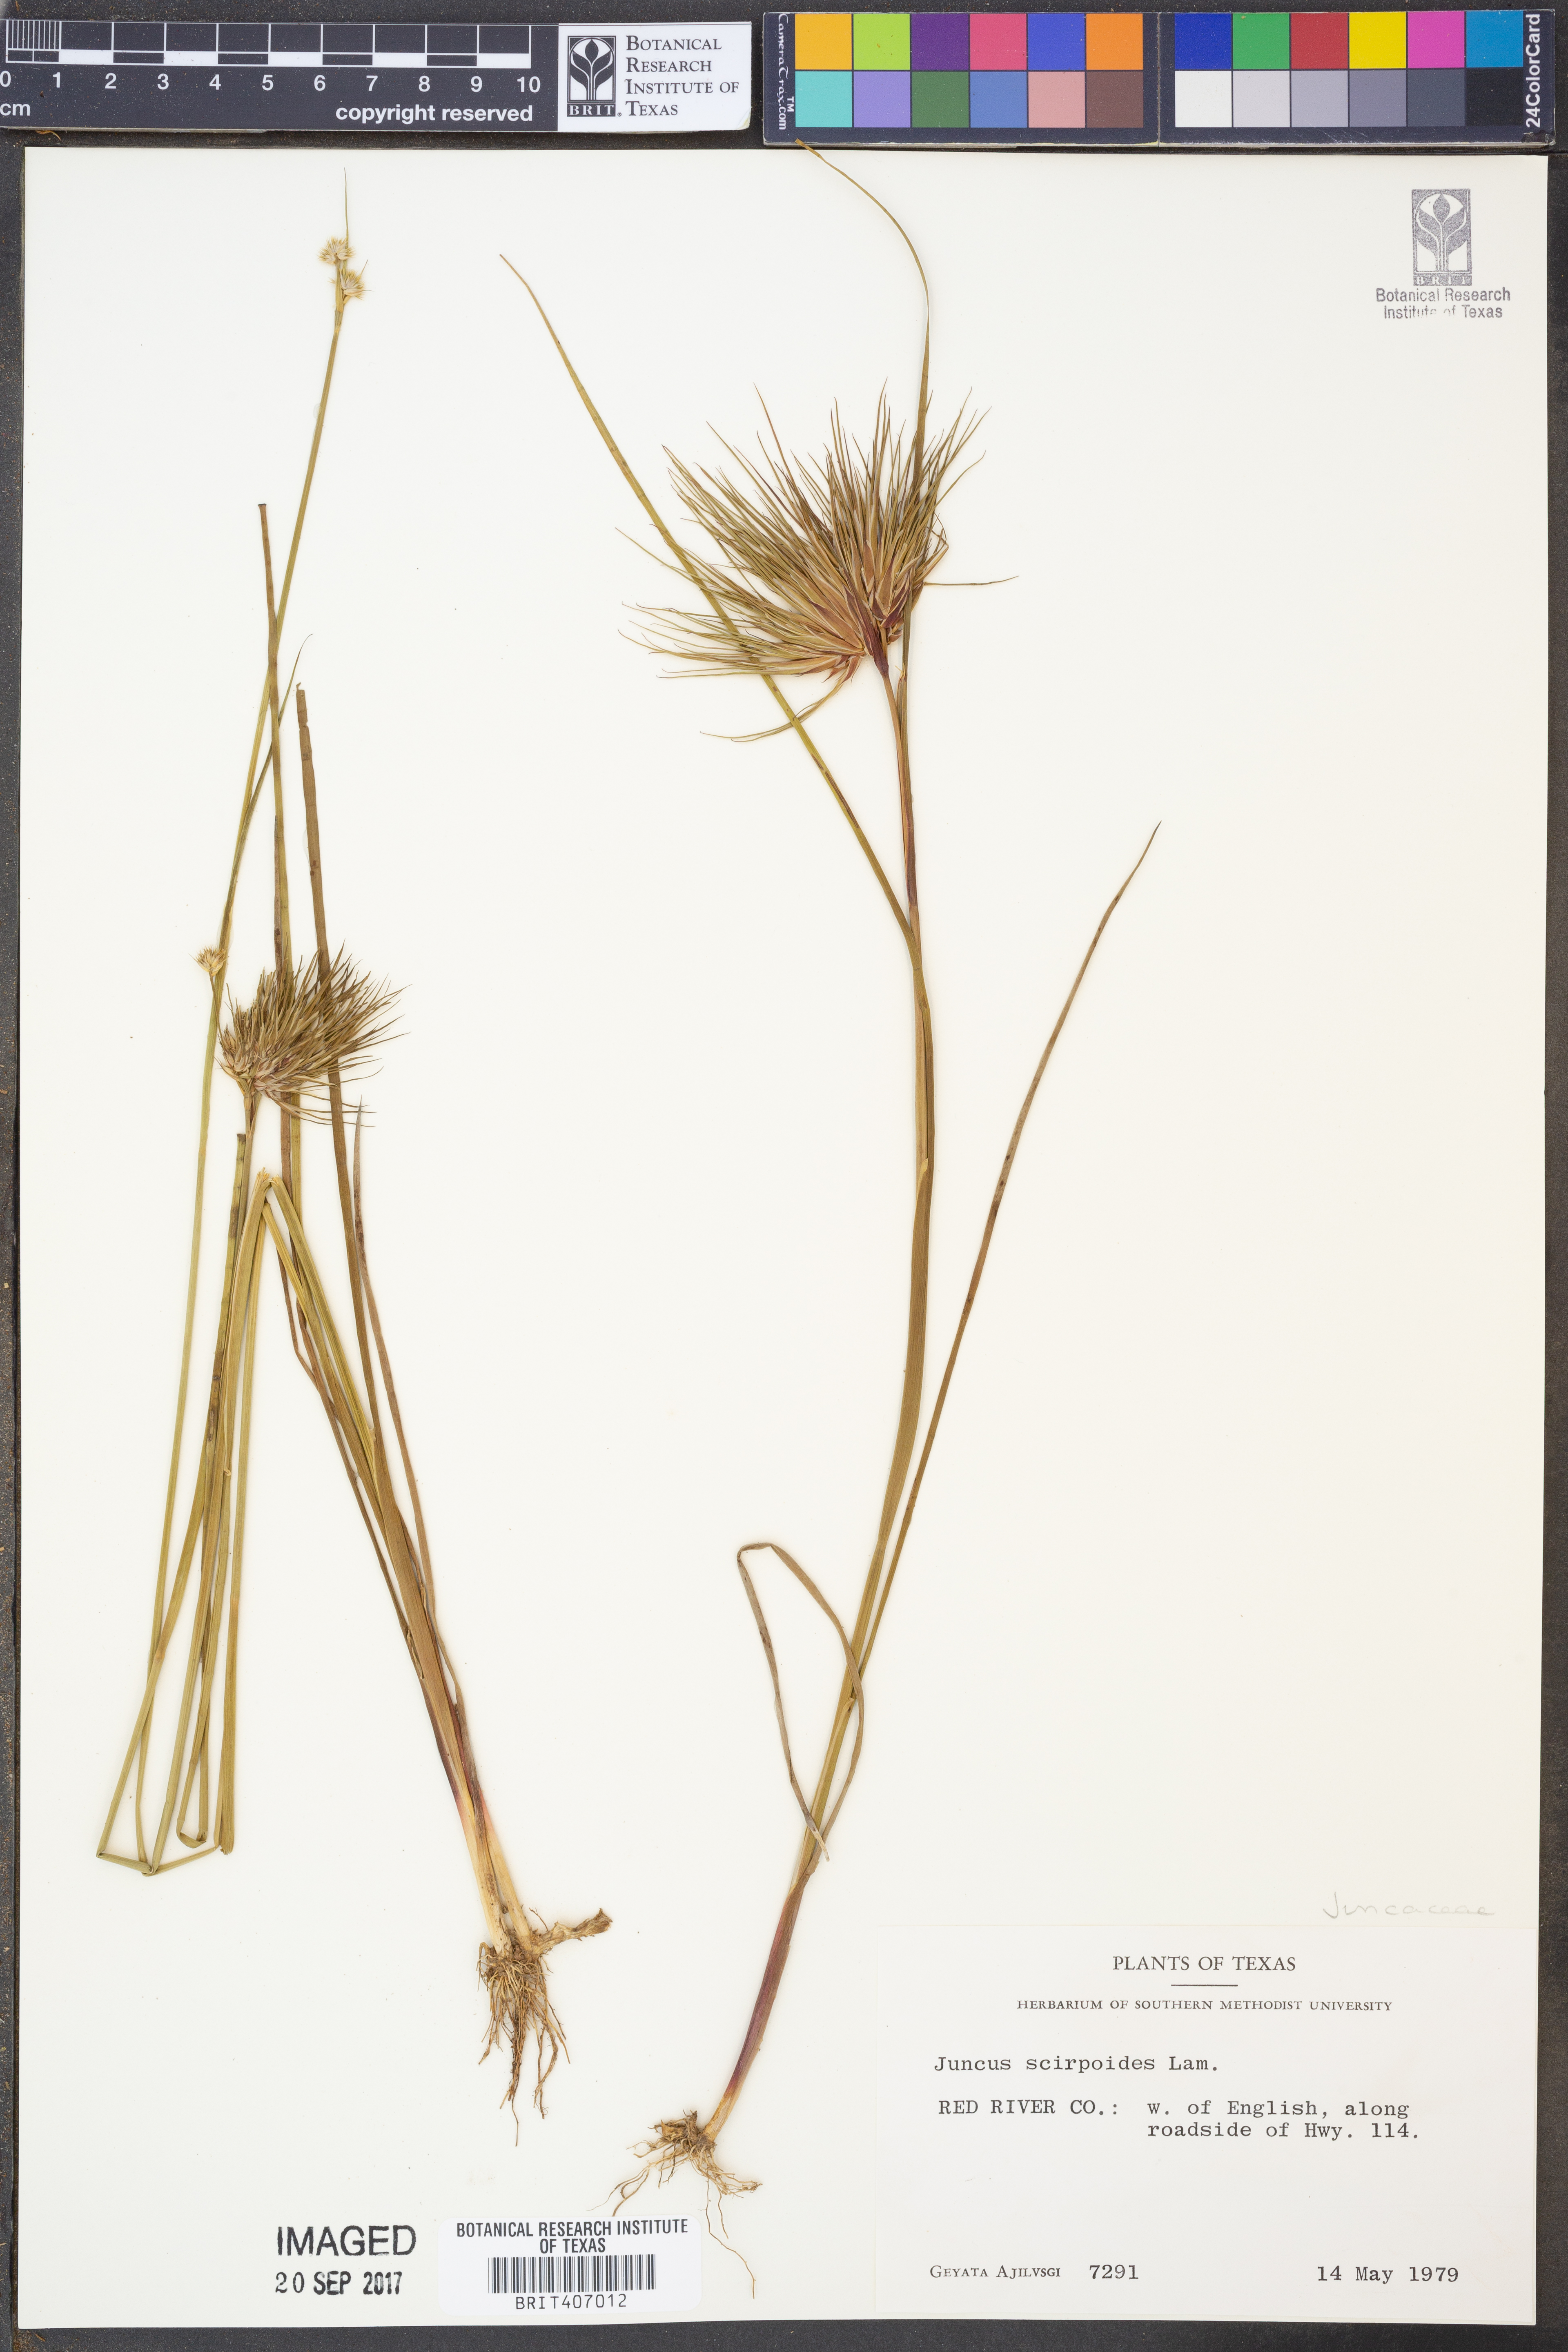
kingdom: Plantae
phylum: Tracheophyta
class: Liliopsida
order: Poales
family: Juncaceae
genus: Juncus
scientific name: Juncus scirpoides
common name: Needlepod rush
